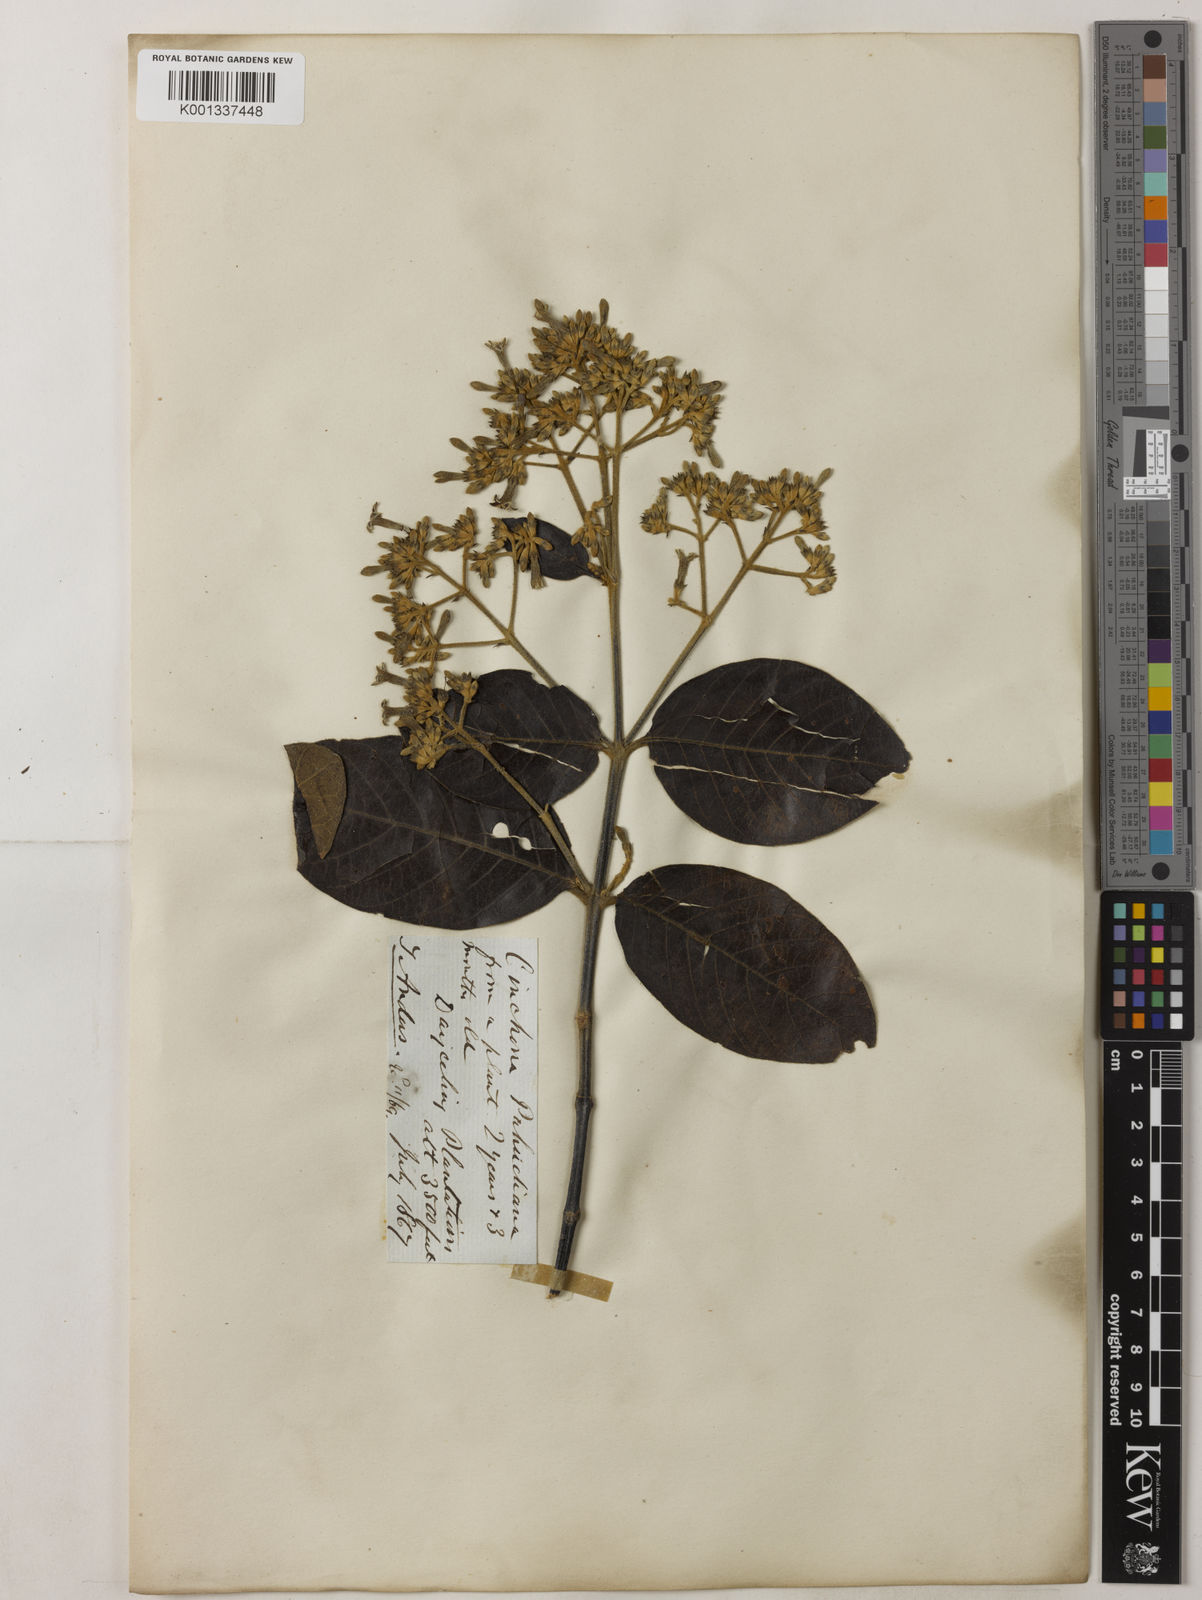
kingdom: Plantae
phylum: Tracheophyta
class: Magnoliopsida
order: Gentianales
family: Rubiaceae
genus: Cinchona
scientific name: Cinchona calisaya
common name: Ledgerbark
